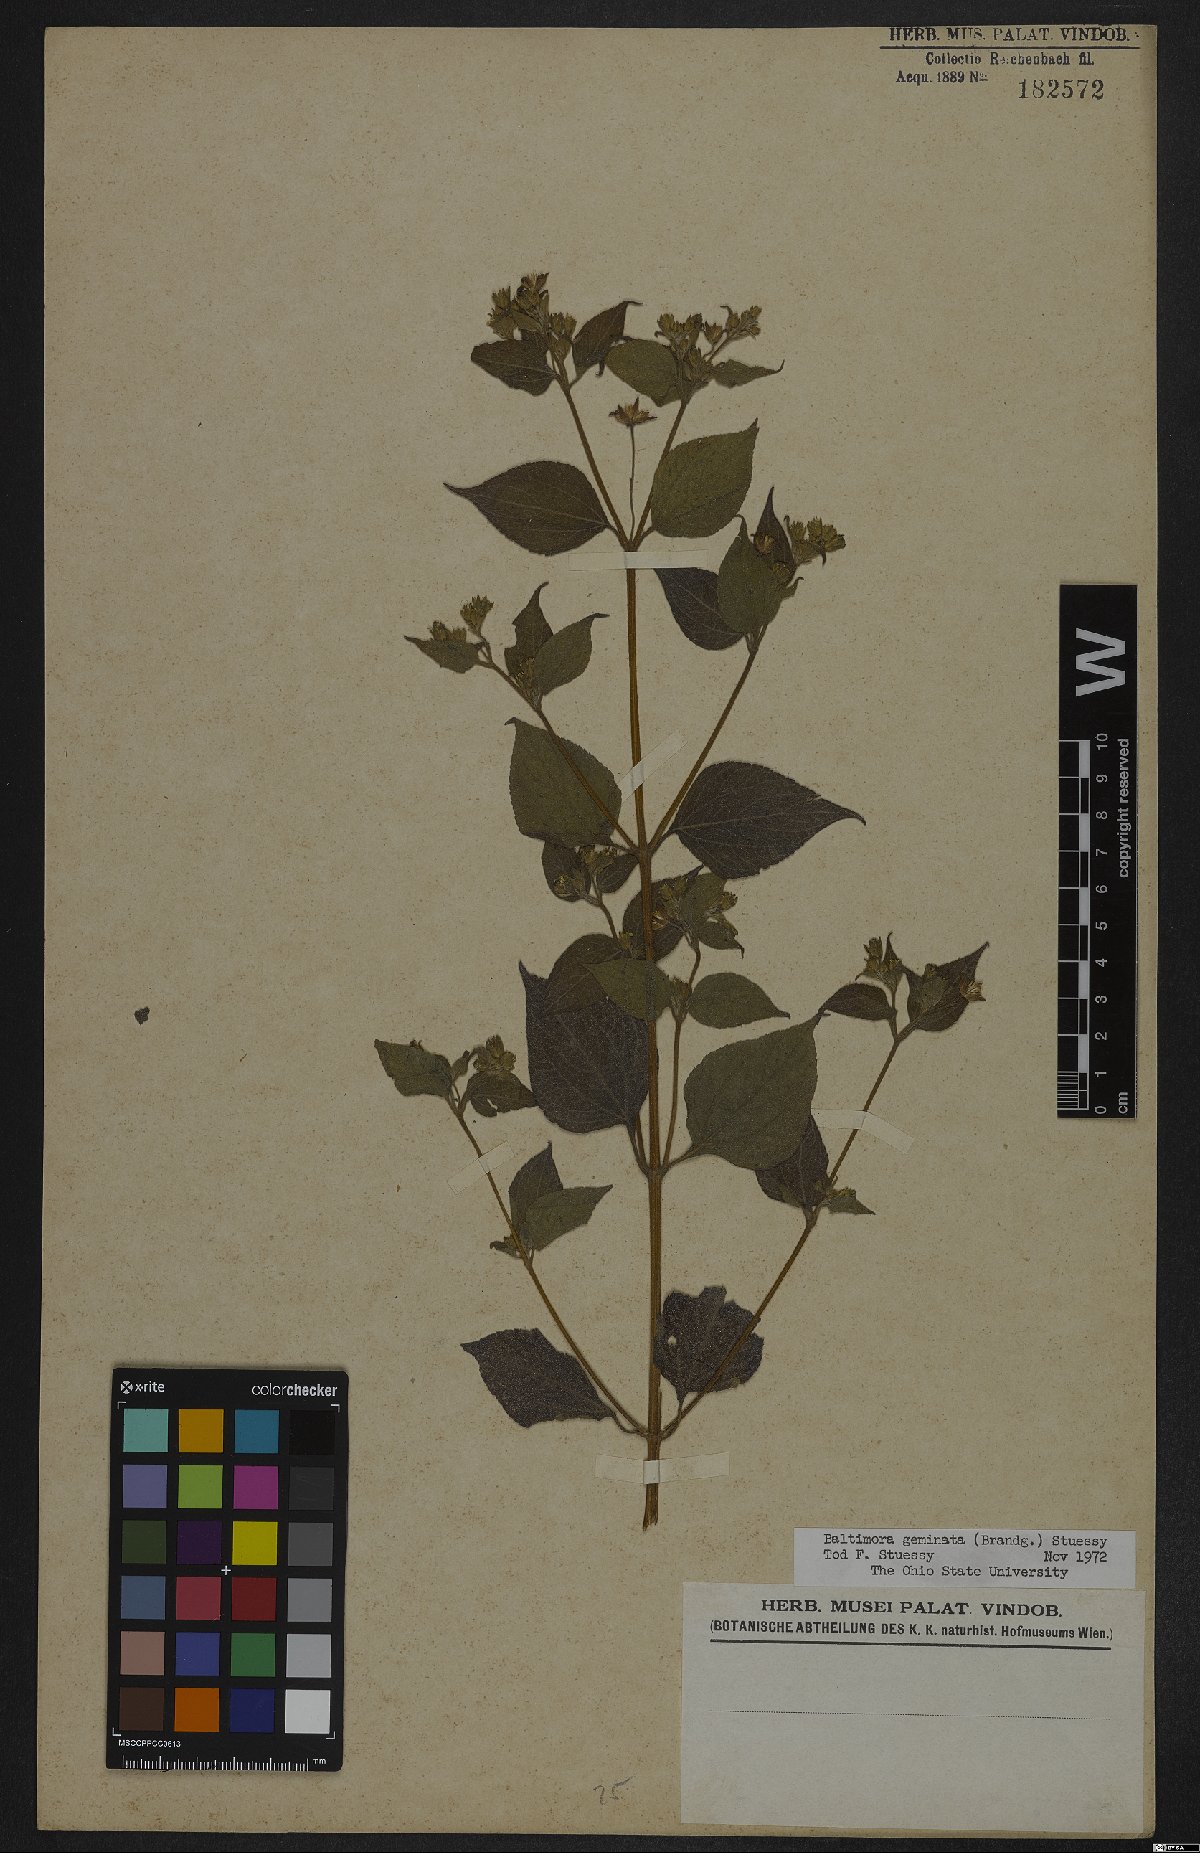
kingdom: Plantae
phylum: Tracheophyta
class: Magnoliopsida
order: Asterales
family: Asteraceae
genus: Baltimora
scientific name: Baltimora geminata
